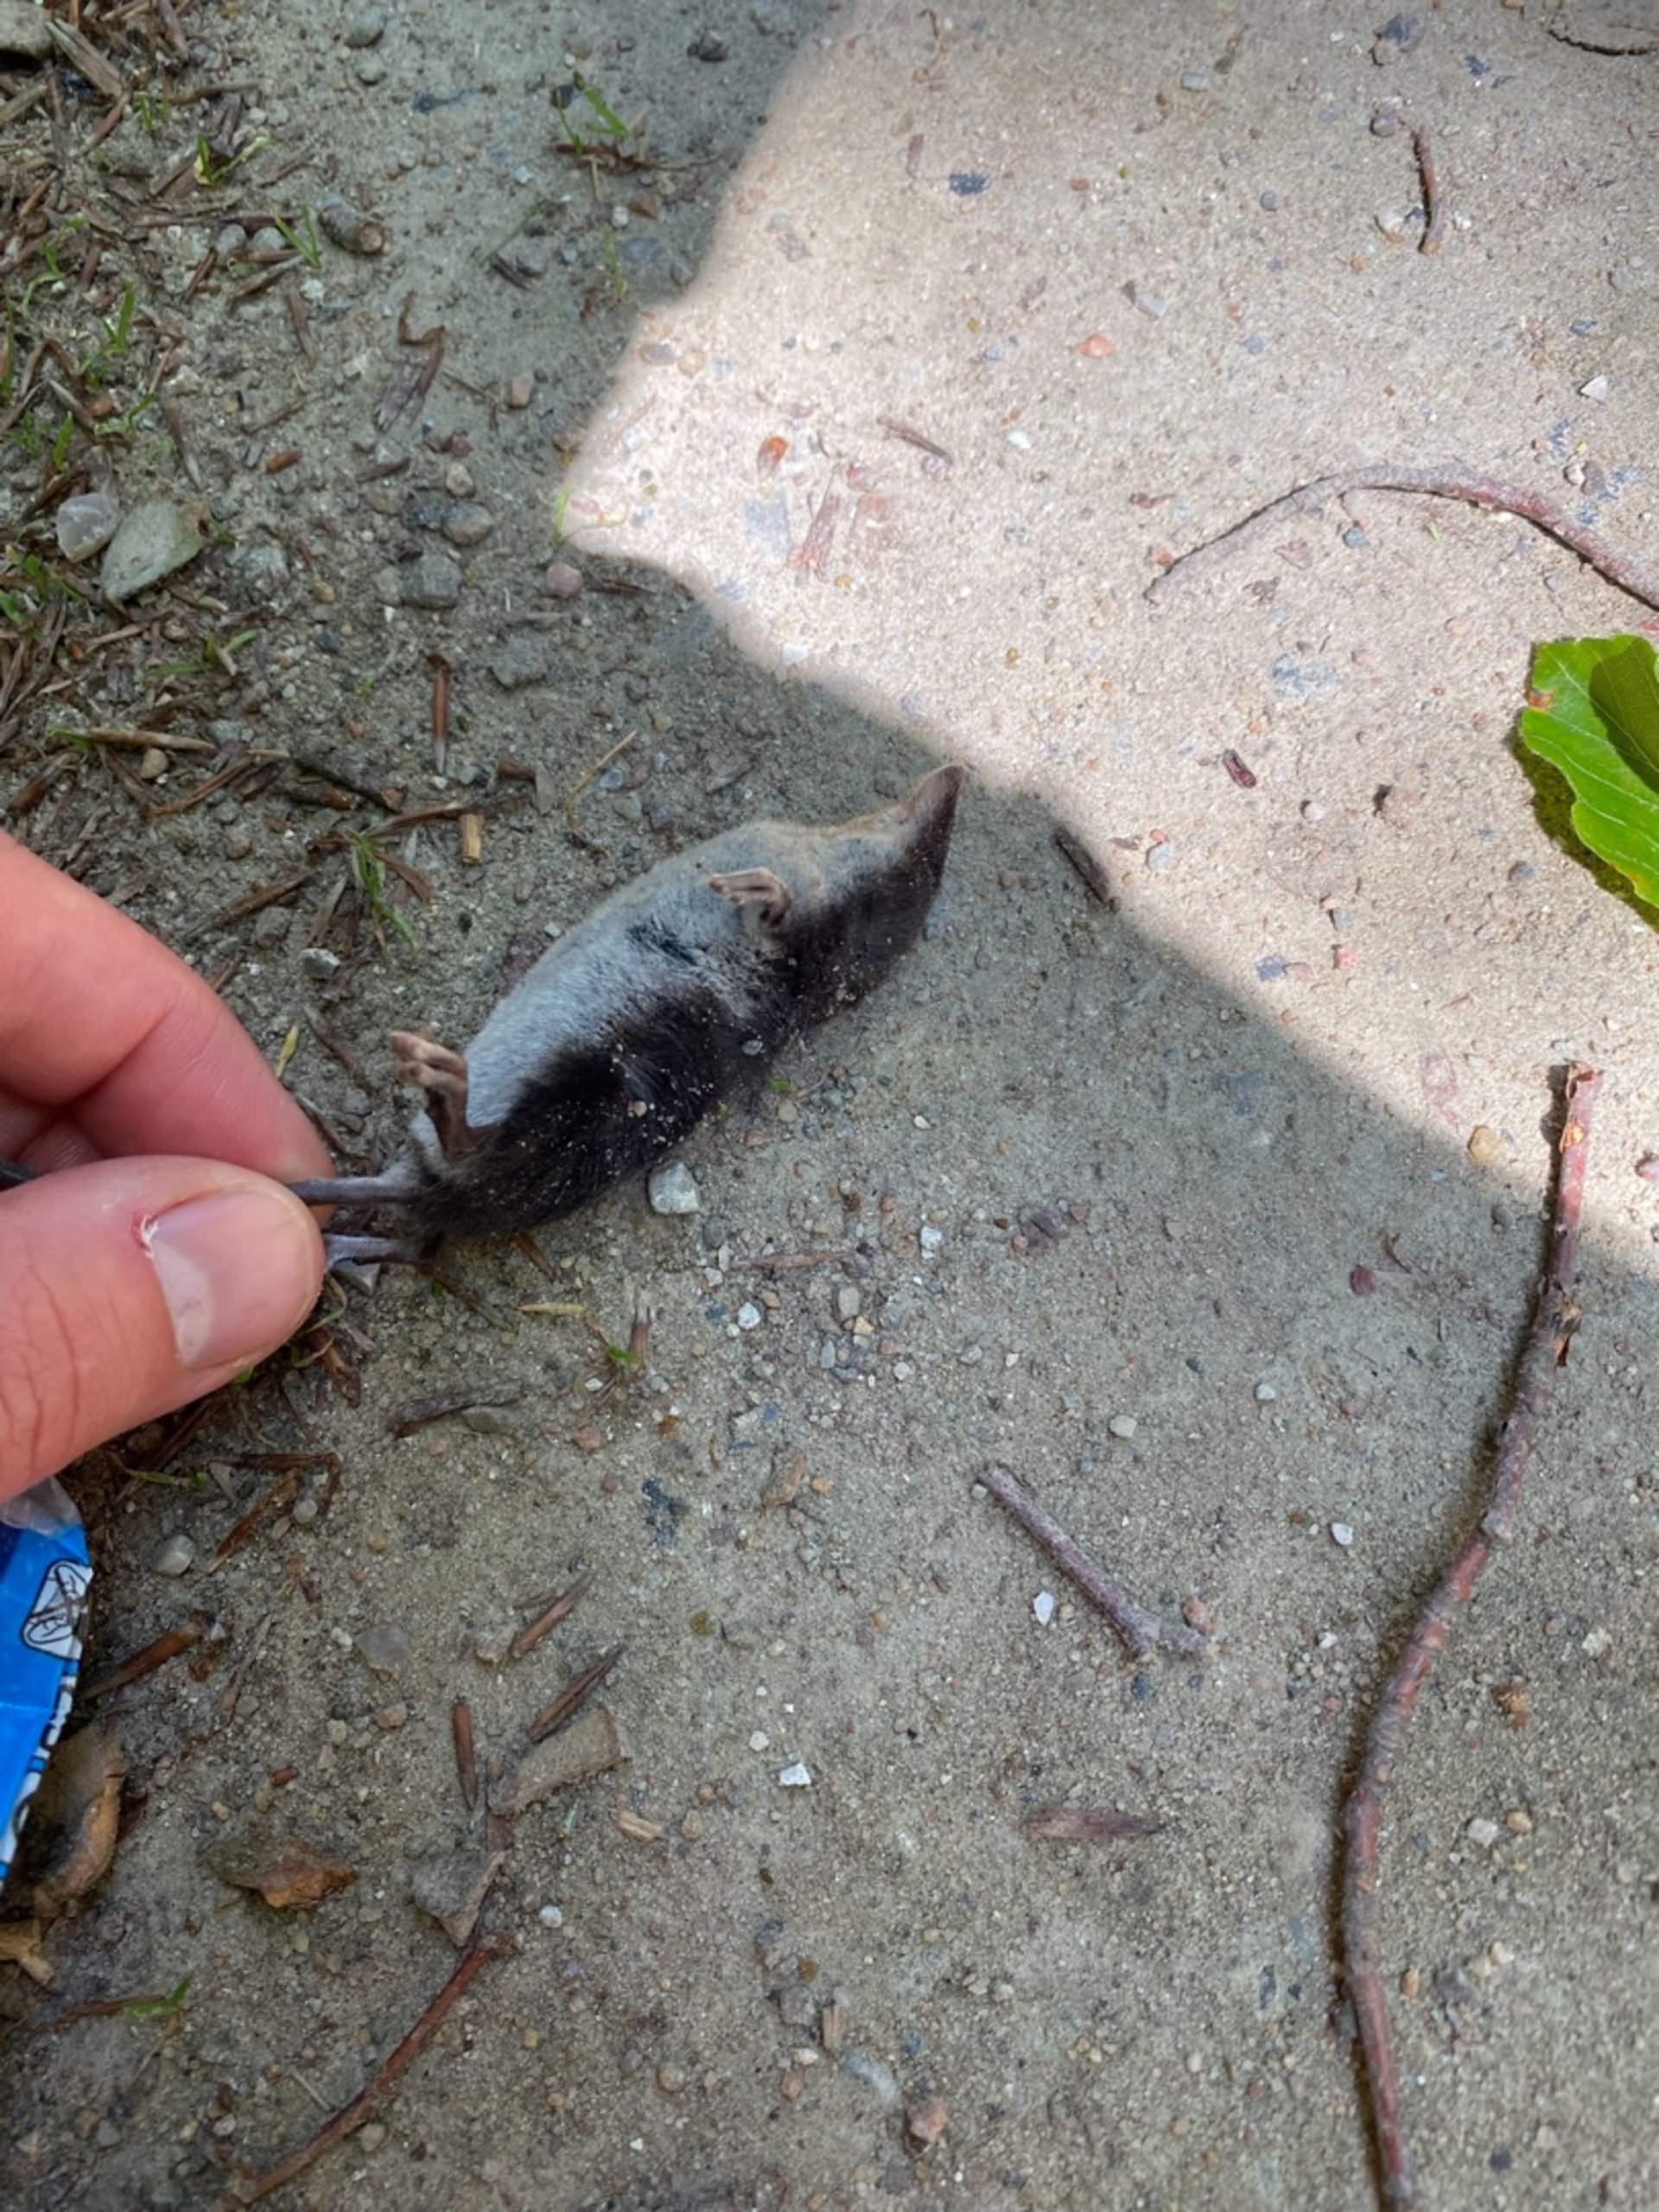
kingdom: Animalia
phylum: Chordata
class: Mammalia
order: Soricomorpha
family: Soricidae
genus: Neomys
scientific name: Neomys fodiens
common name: Vandspidsmus
